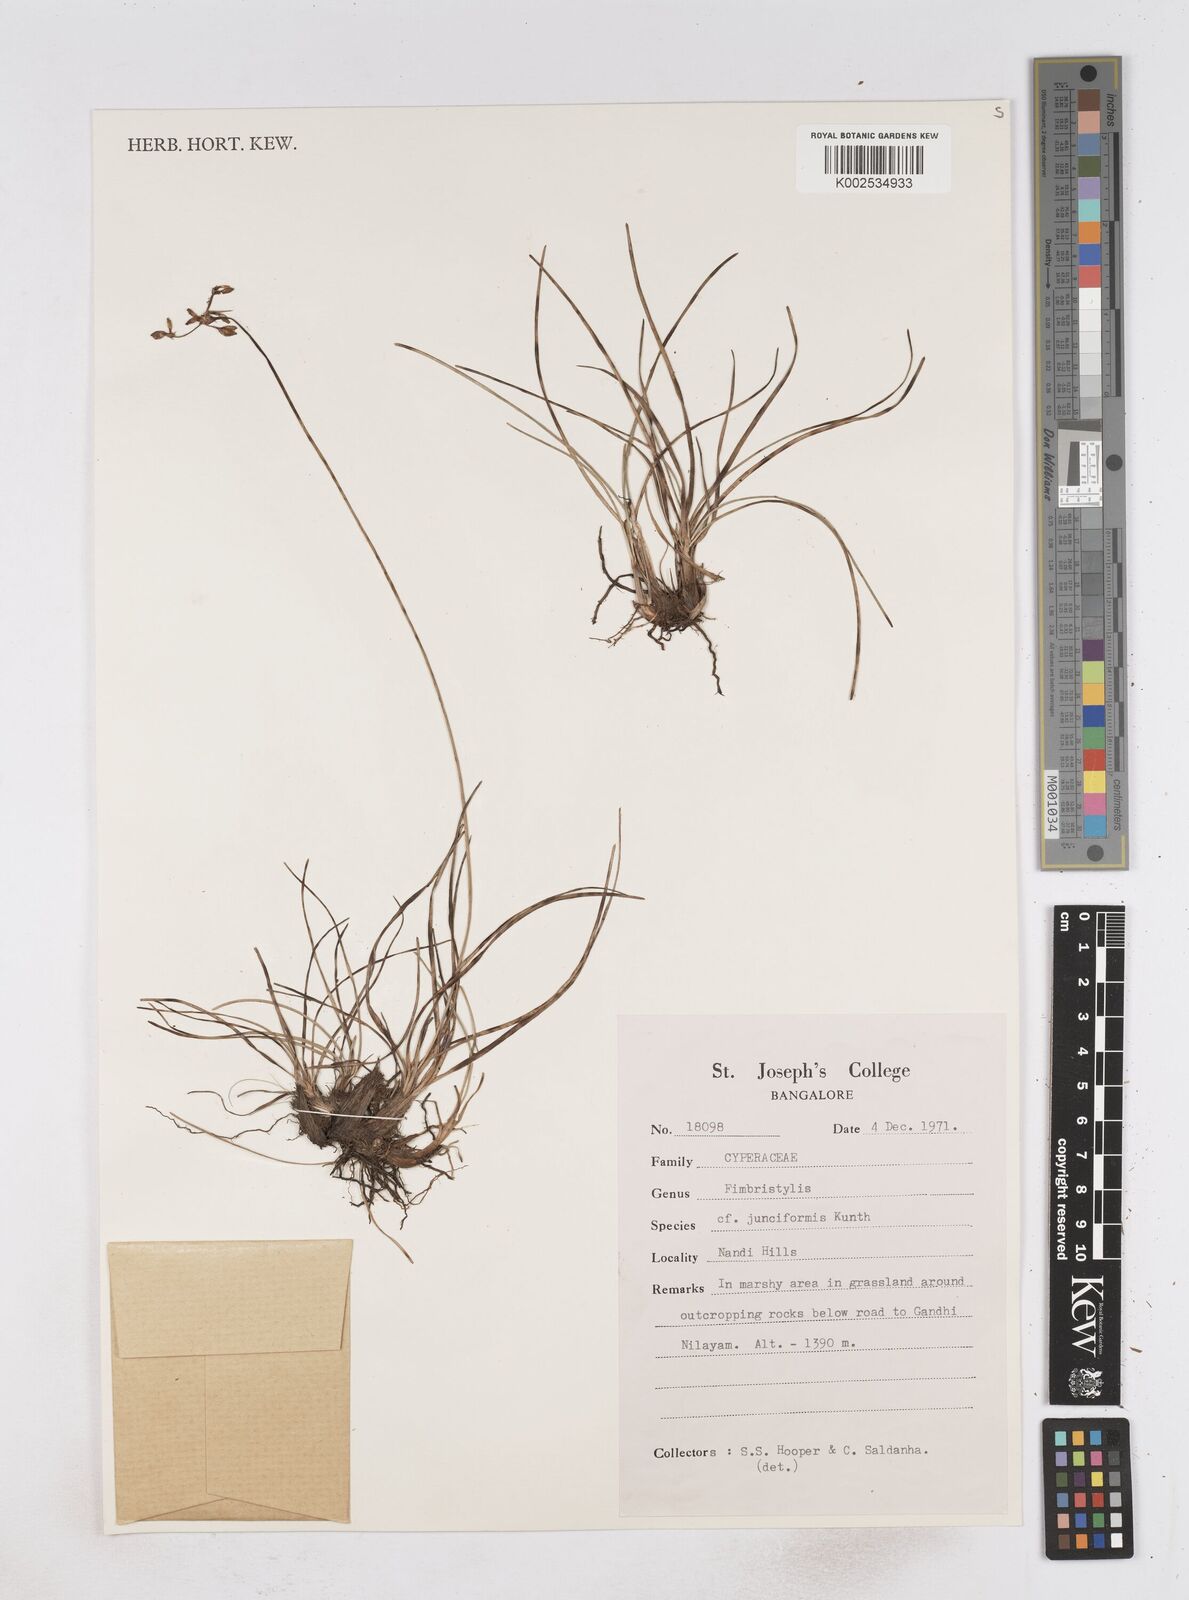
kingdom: Plantae
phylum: Tracheophyta
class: Liliopsida
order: Poales
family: Cyperaceae
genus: Fimbristylis
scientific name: Fimbristylis falcata
